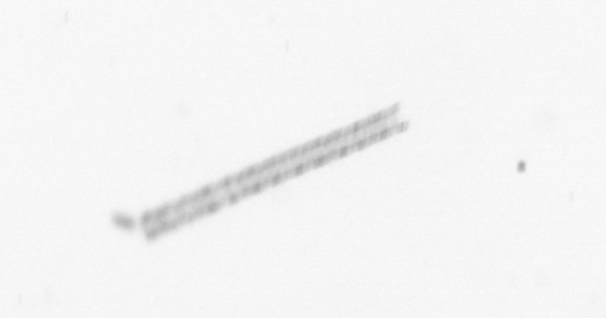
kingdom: Chromista
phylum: Ochrophyta
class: Bacillariophyceae
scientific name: Bacillariophyceae
